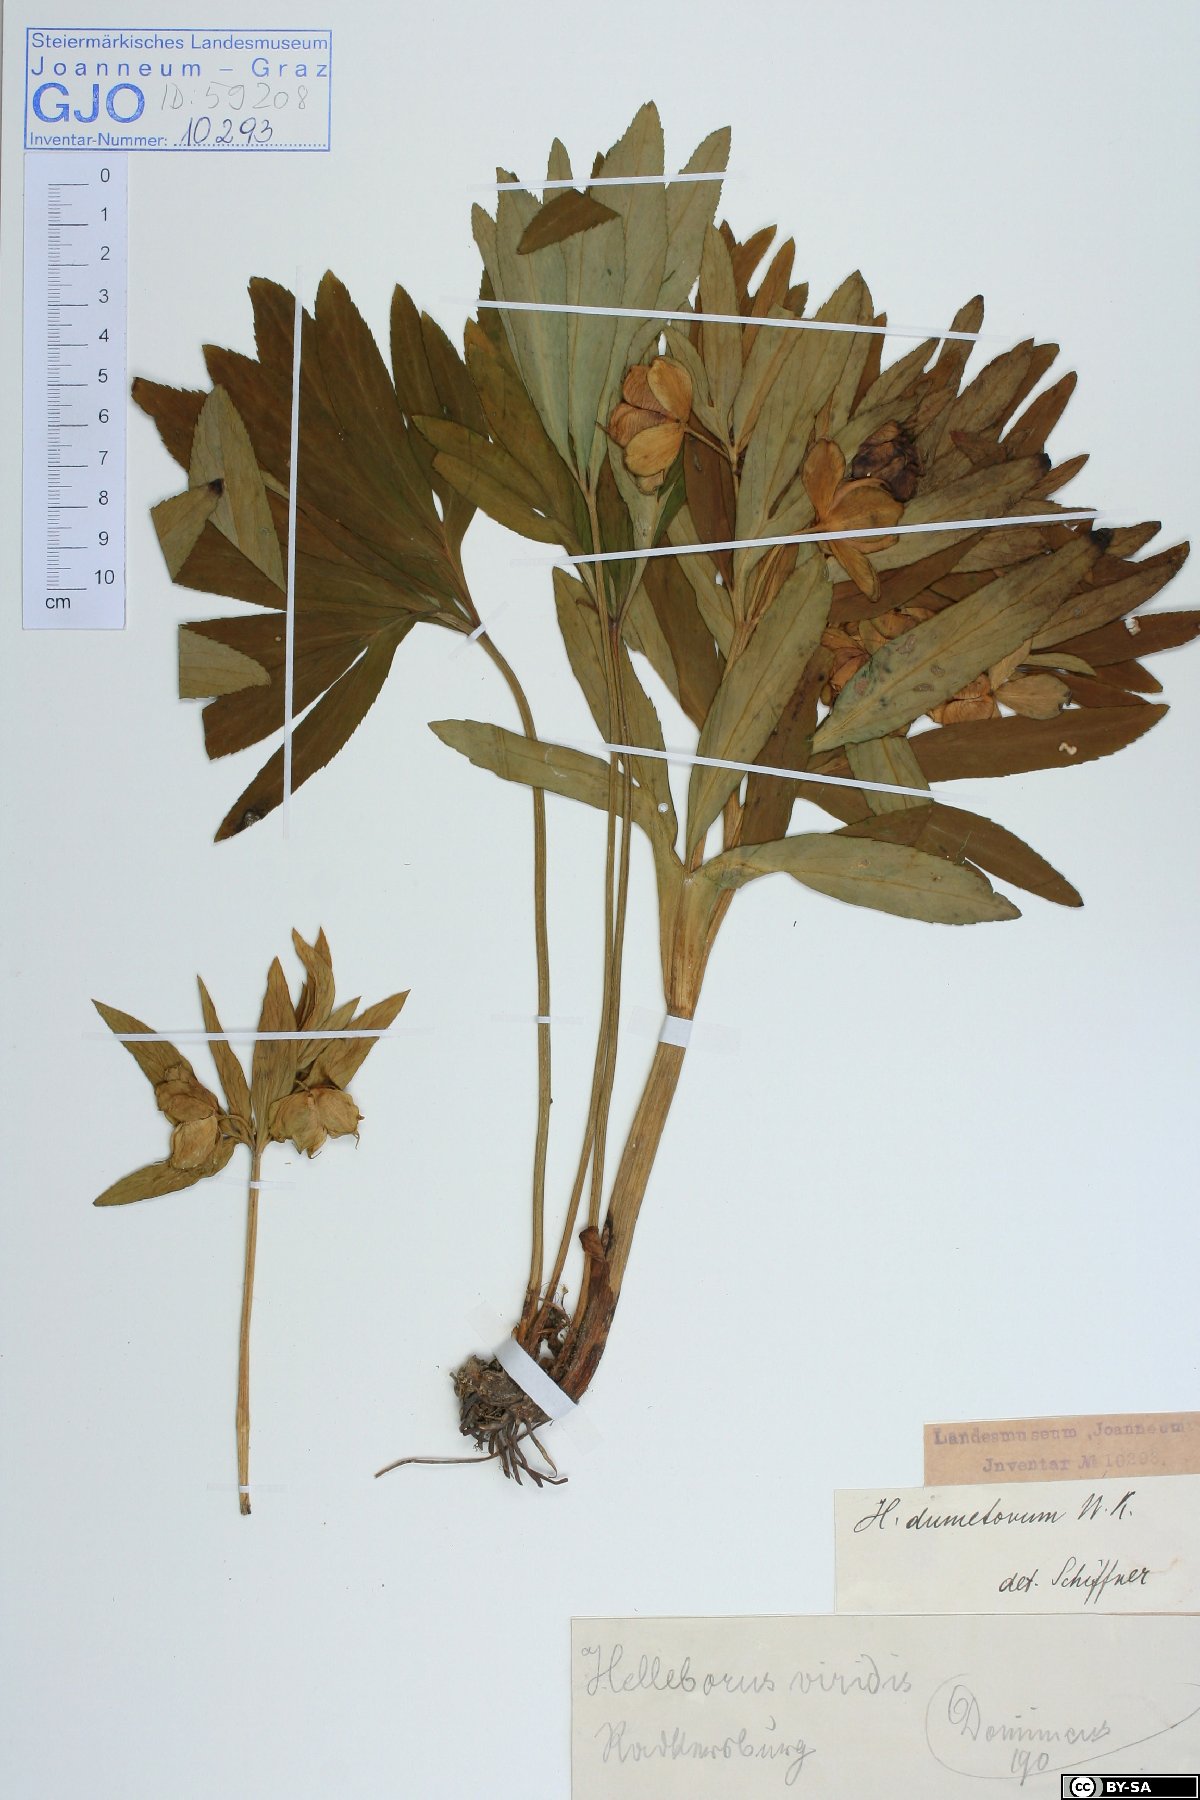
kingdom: Plantae
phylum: Tracheophyta
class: Magnoliopsida
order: Ranunculales
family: Ranunculaceae
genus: Helleborus
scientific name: Helleborus dumetorum
